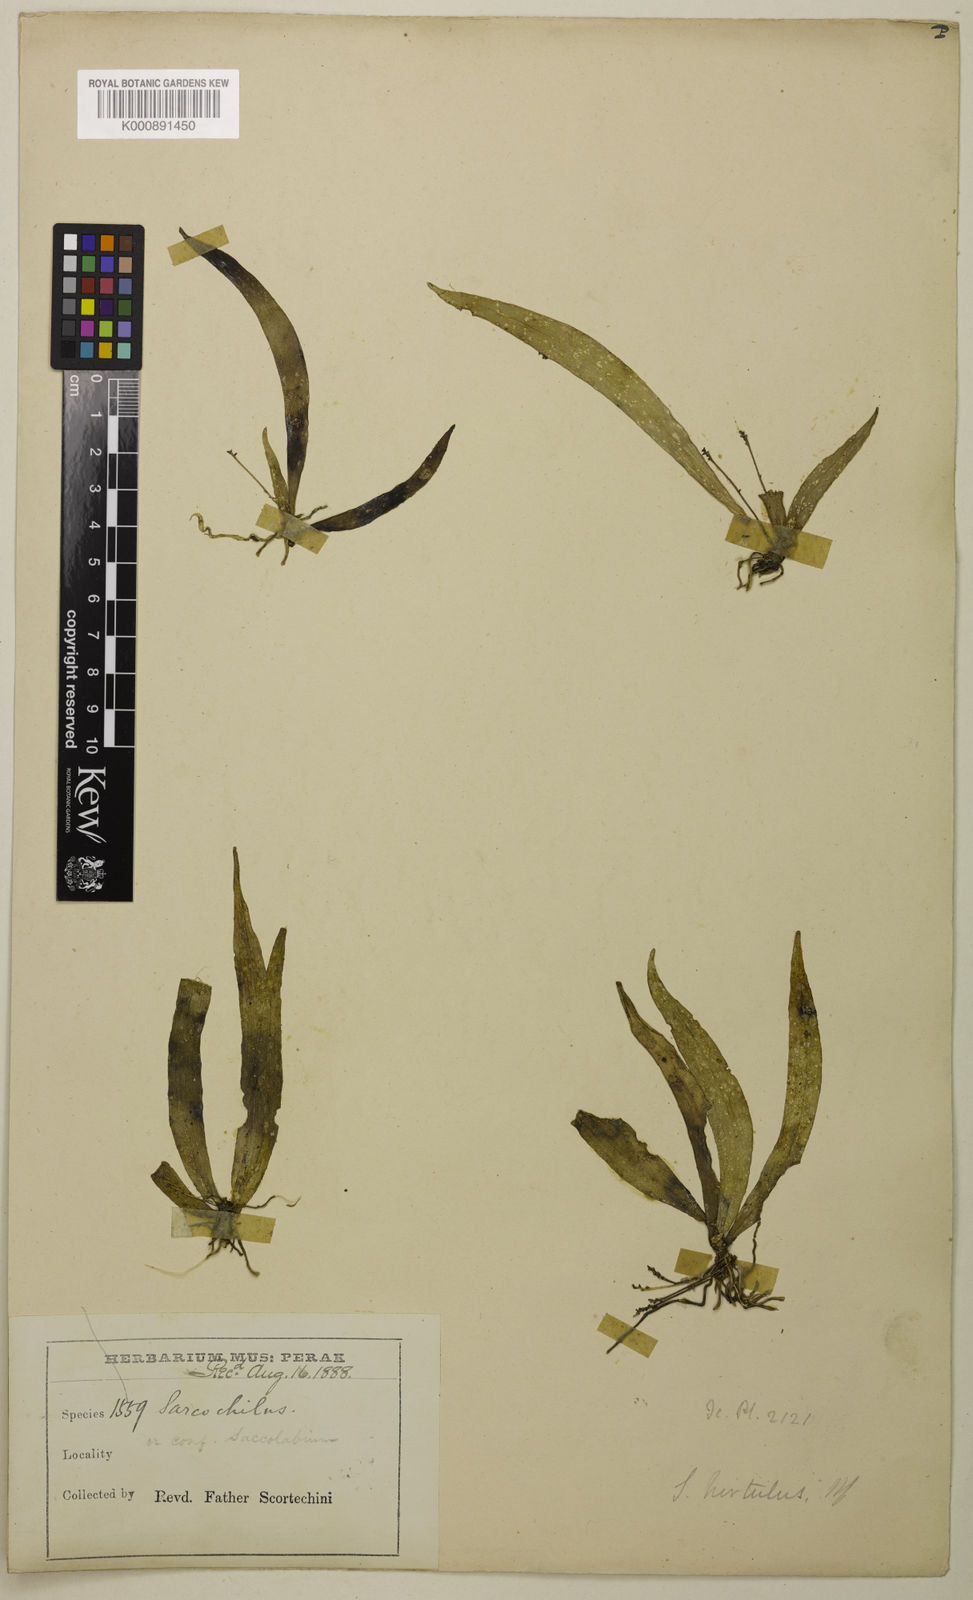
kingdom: Plantae
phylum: Tracheophyta
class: Liliopsida
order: Asparagales
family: Orchidaceae
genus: Grosourdya
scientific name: Grosourdya appendiculata
